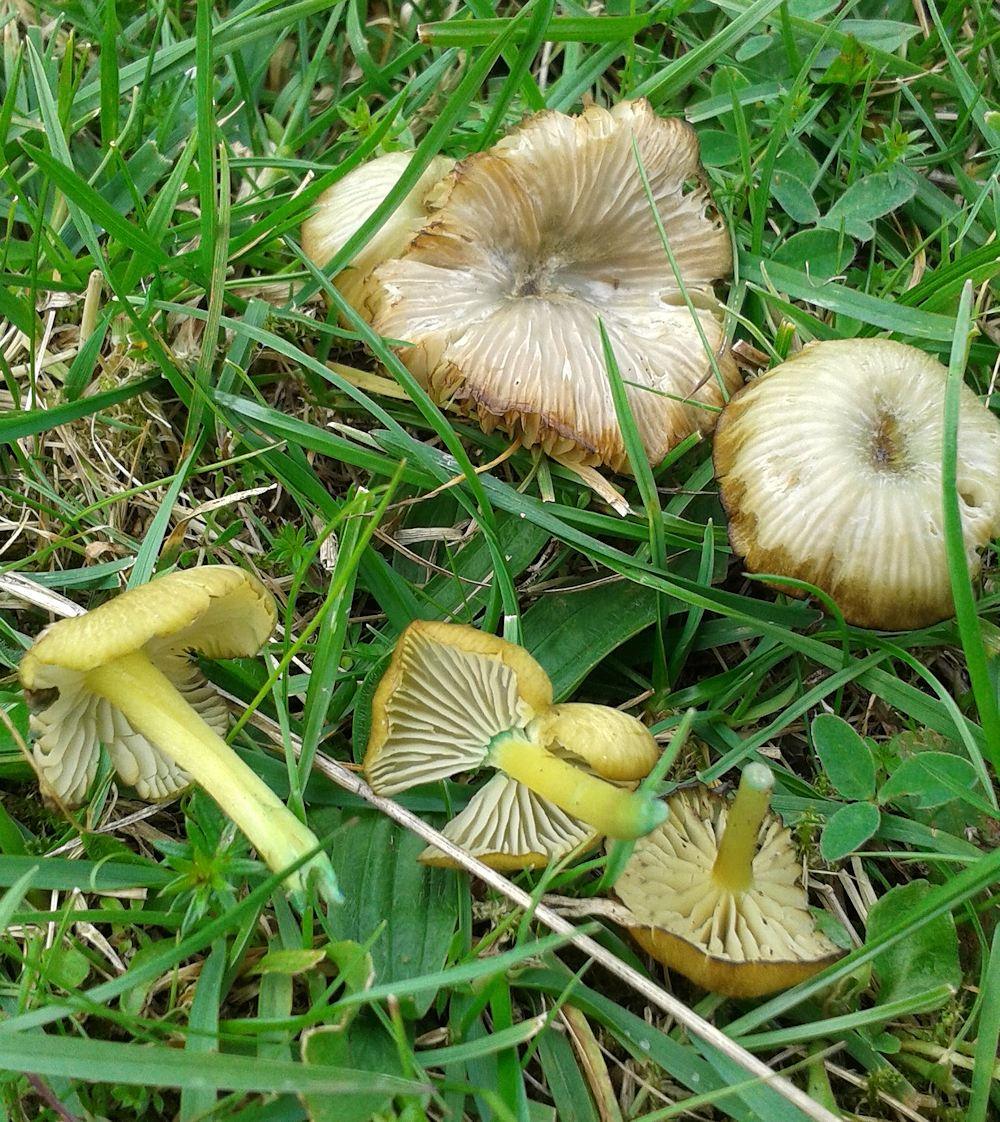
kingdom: Fungi
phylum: Basidiomycota
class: Agaricomycetes
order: Agaricales
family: Entolomataceae
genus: Entoloma
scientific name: Entoloma incanum
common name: grøngul rødblad
